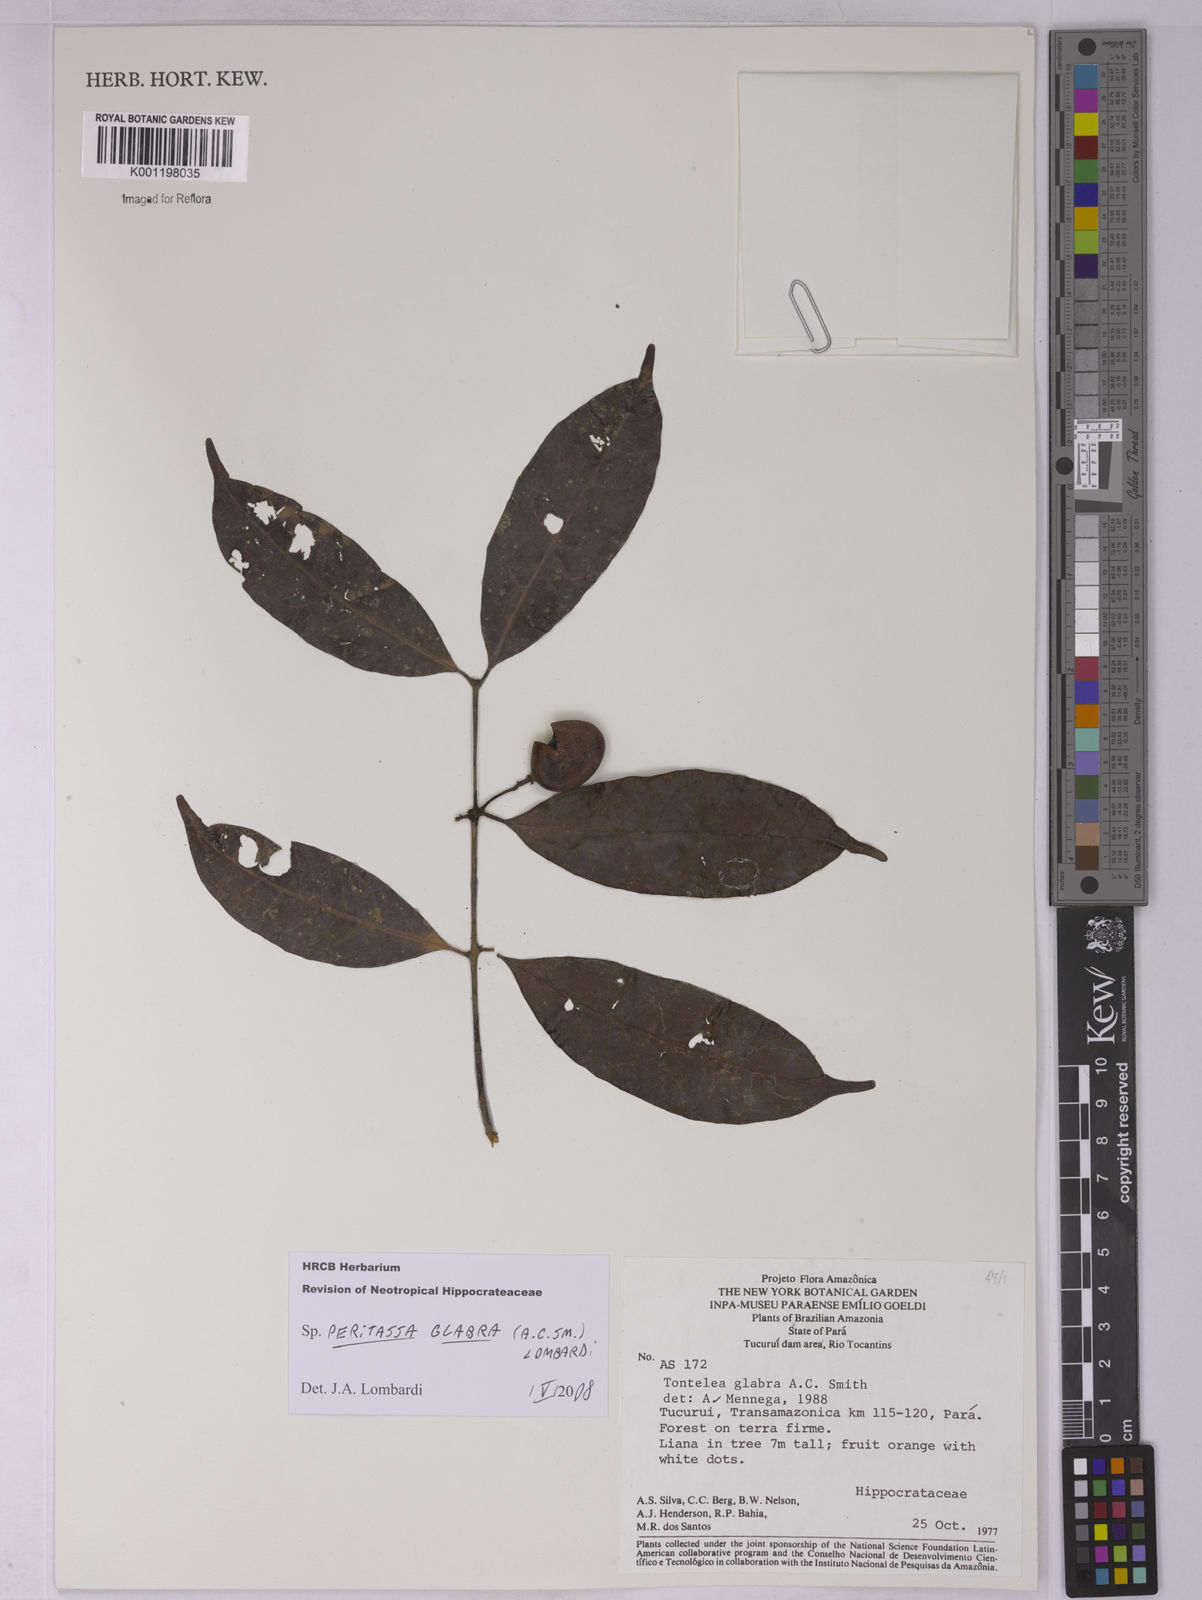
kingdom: Plantae
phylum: Tracheophyta
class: Magnoliopsida
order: Celastrales
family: Celastraceae
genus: Peritassa
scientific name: Peritassa glabra
